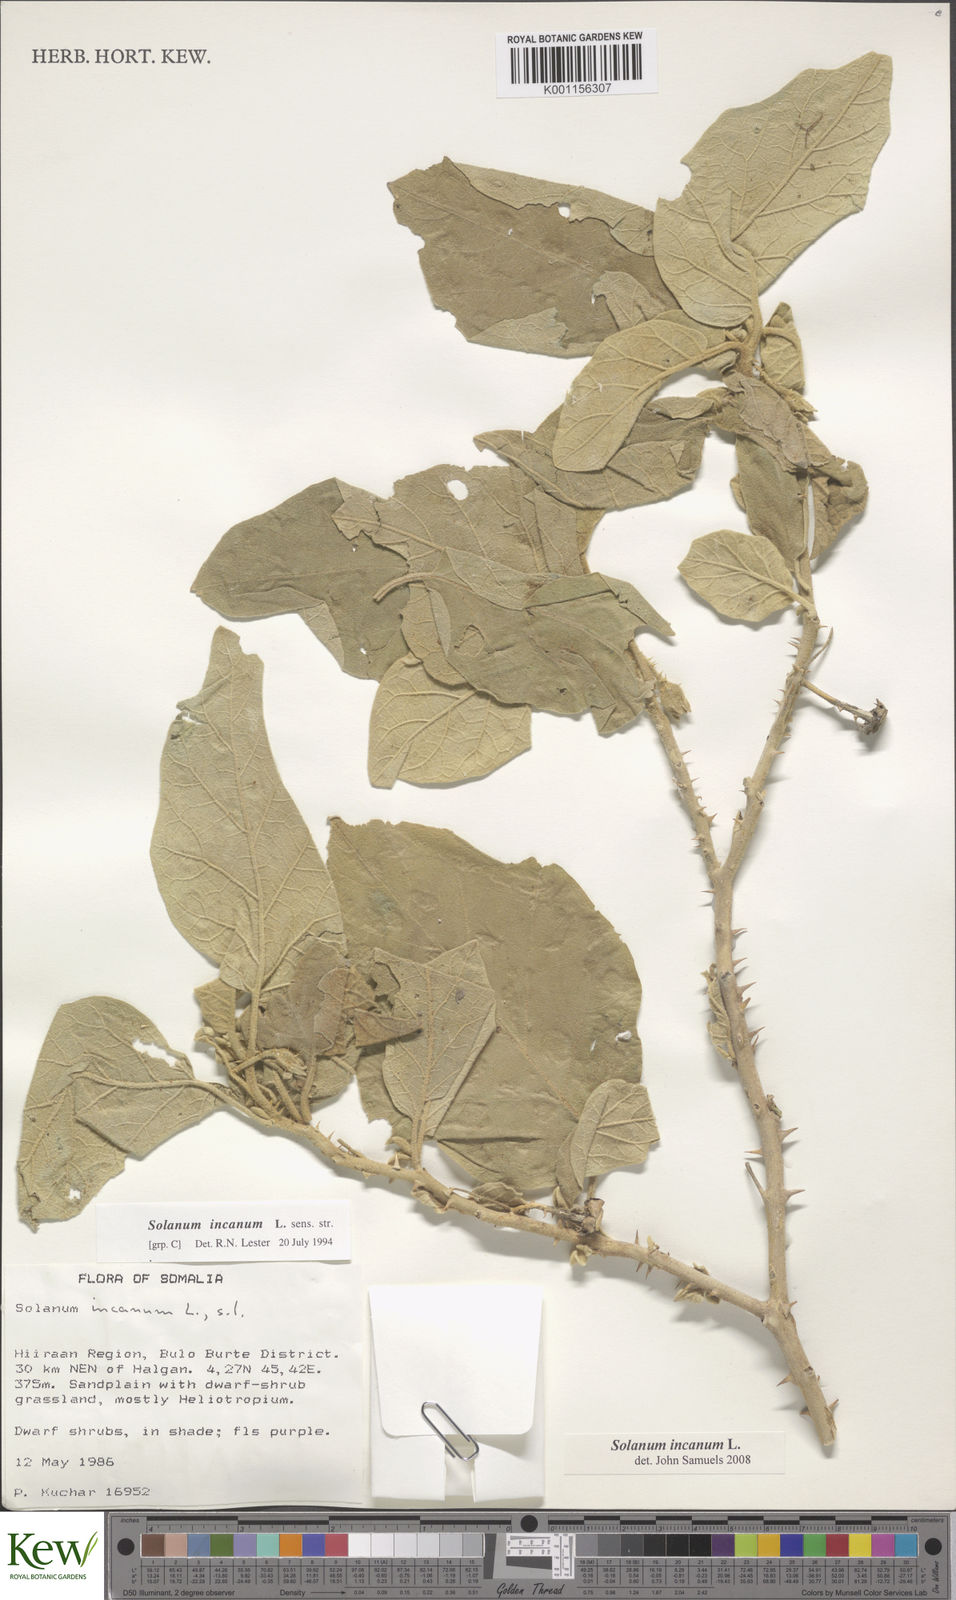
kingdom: Plantae
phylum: Tracheophyta
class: Magnoliopsida
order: Solanales
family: Solanaceae
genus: Solanum
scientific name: Solanum incanum
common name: Bitter apple
